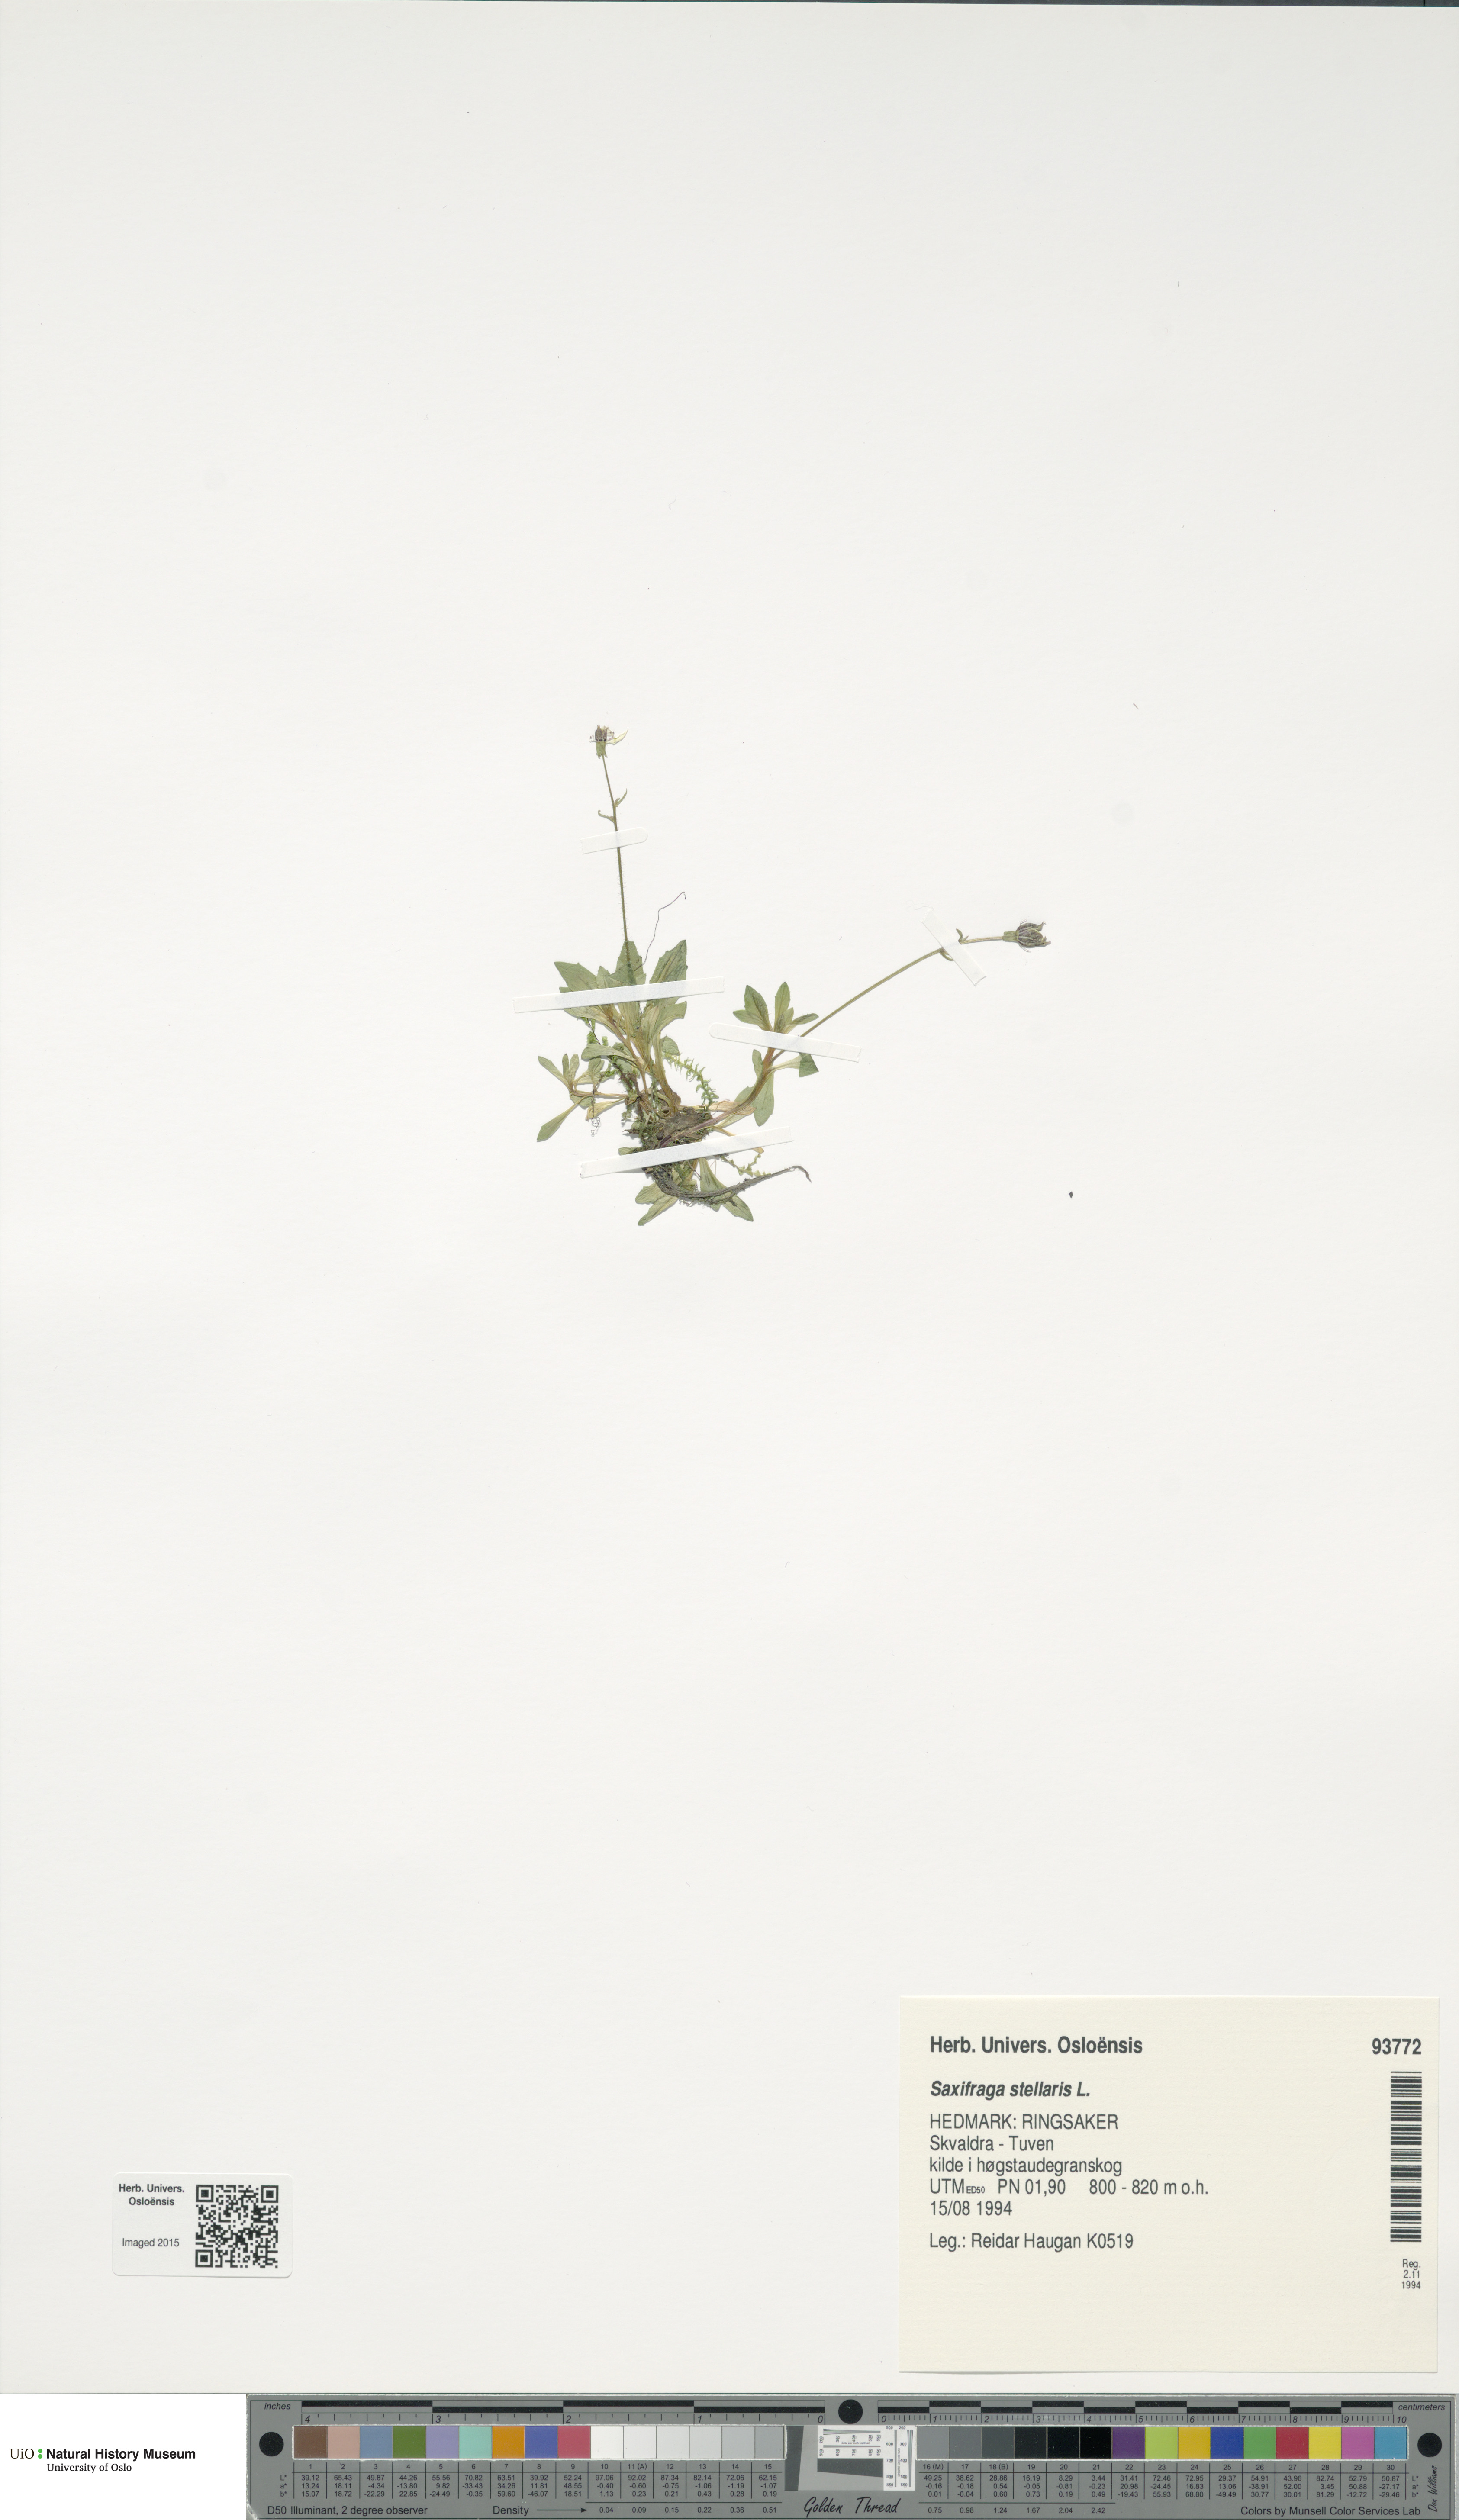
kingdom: Plantae
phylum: Tracheophyta
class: Magnoliopsida
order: Saxifragales
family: Saxifragaceae
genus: Micranthes
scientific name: Micranthes stellaris
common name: Starry saxifrage
